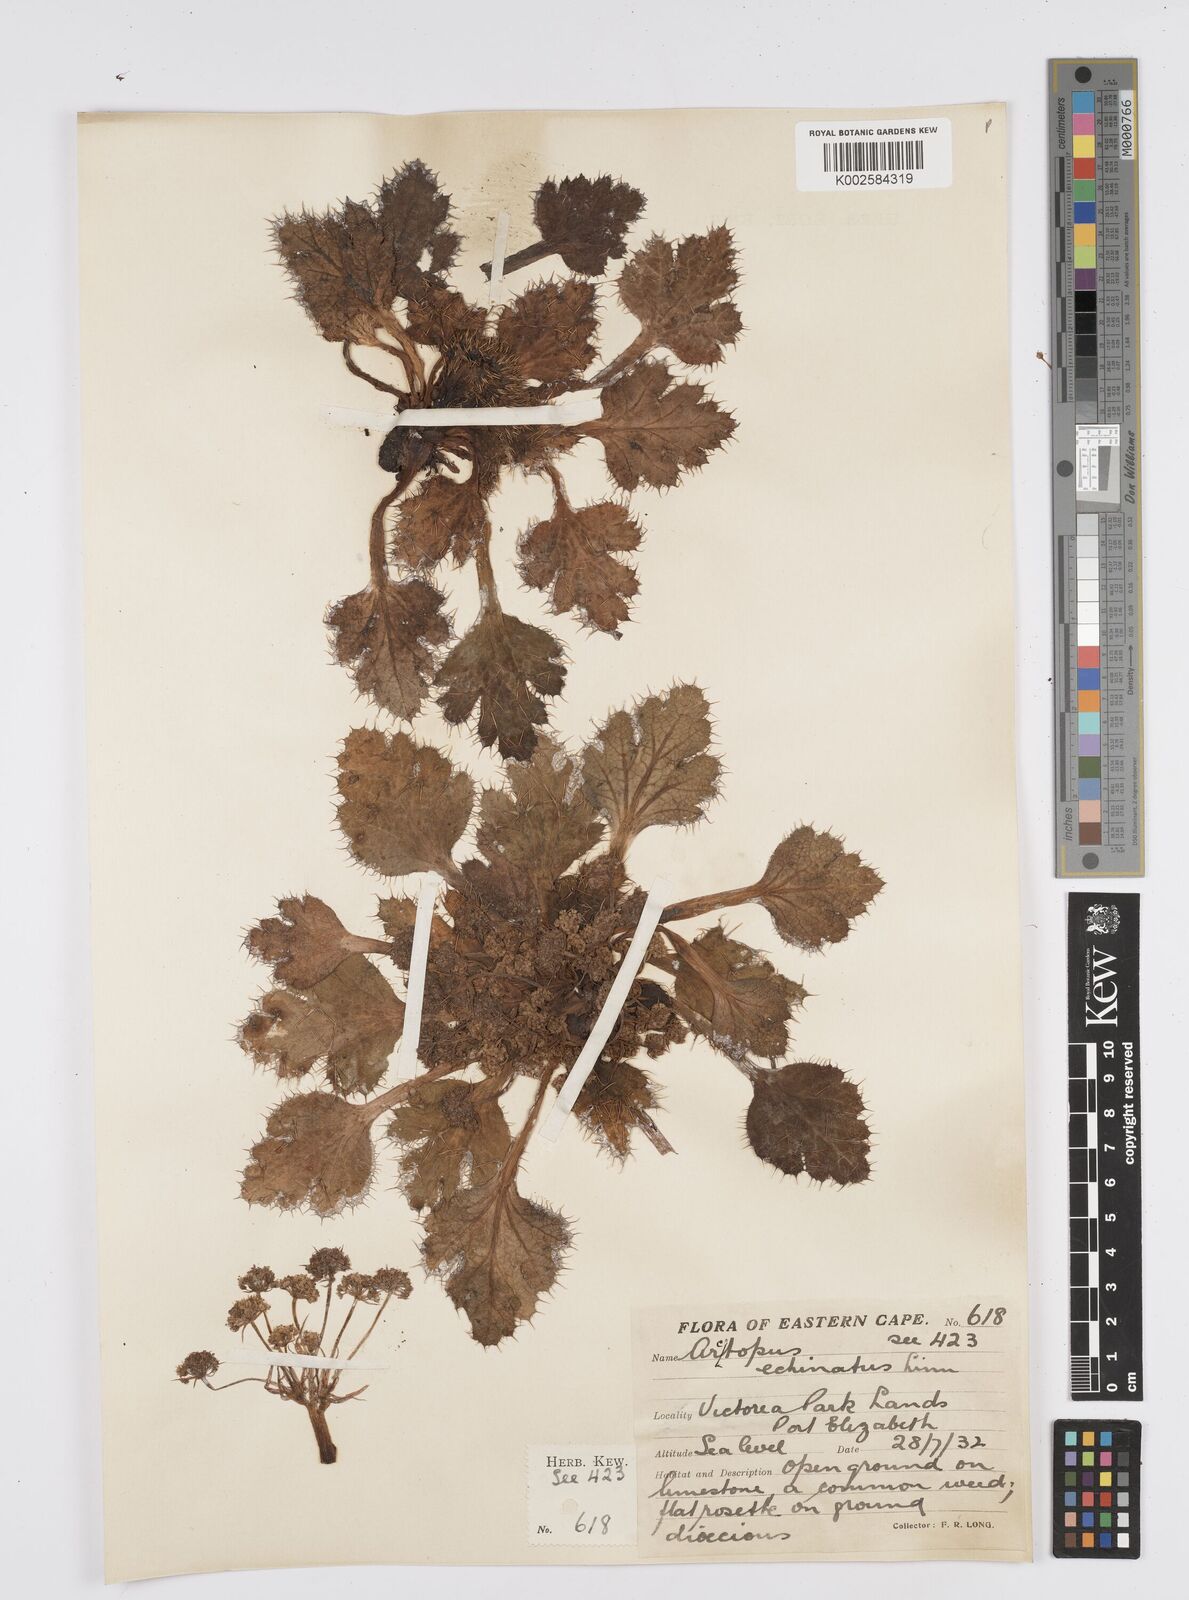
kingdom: Plantae
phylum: Tracheophyta
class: Magnoliopsida
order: Apiales
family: Apiaceae
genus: Arctopus
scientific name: Arctopus dregei
